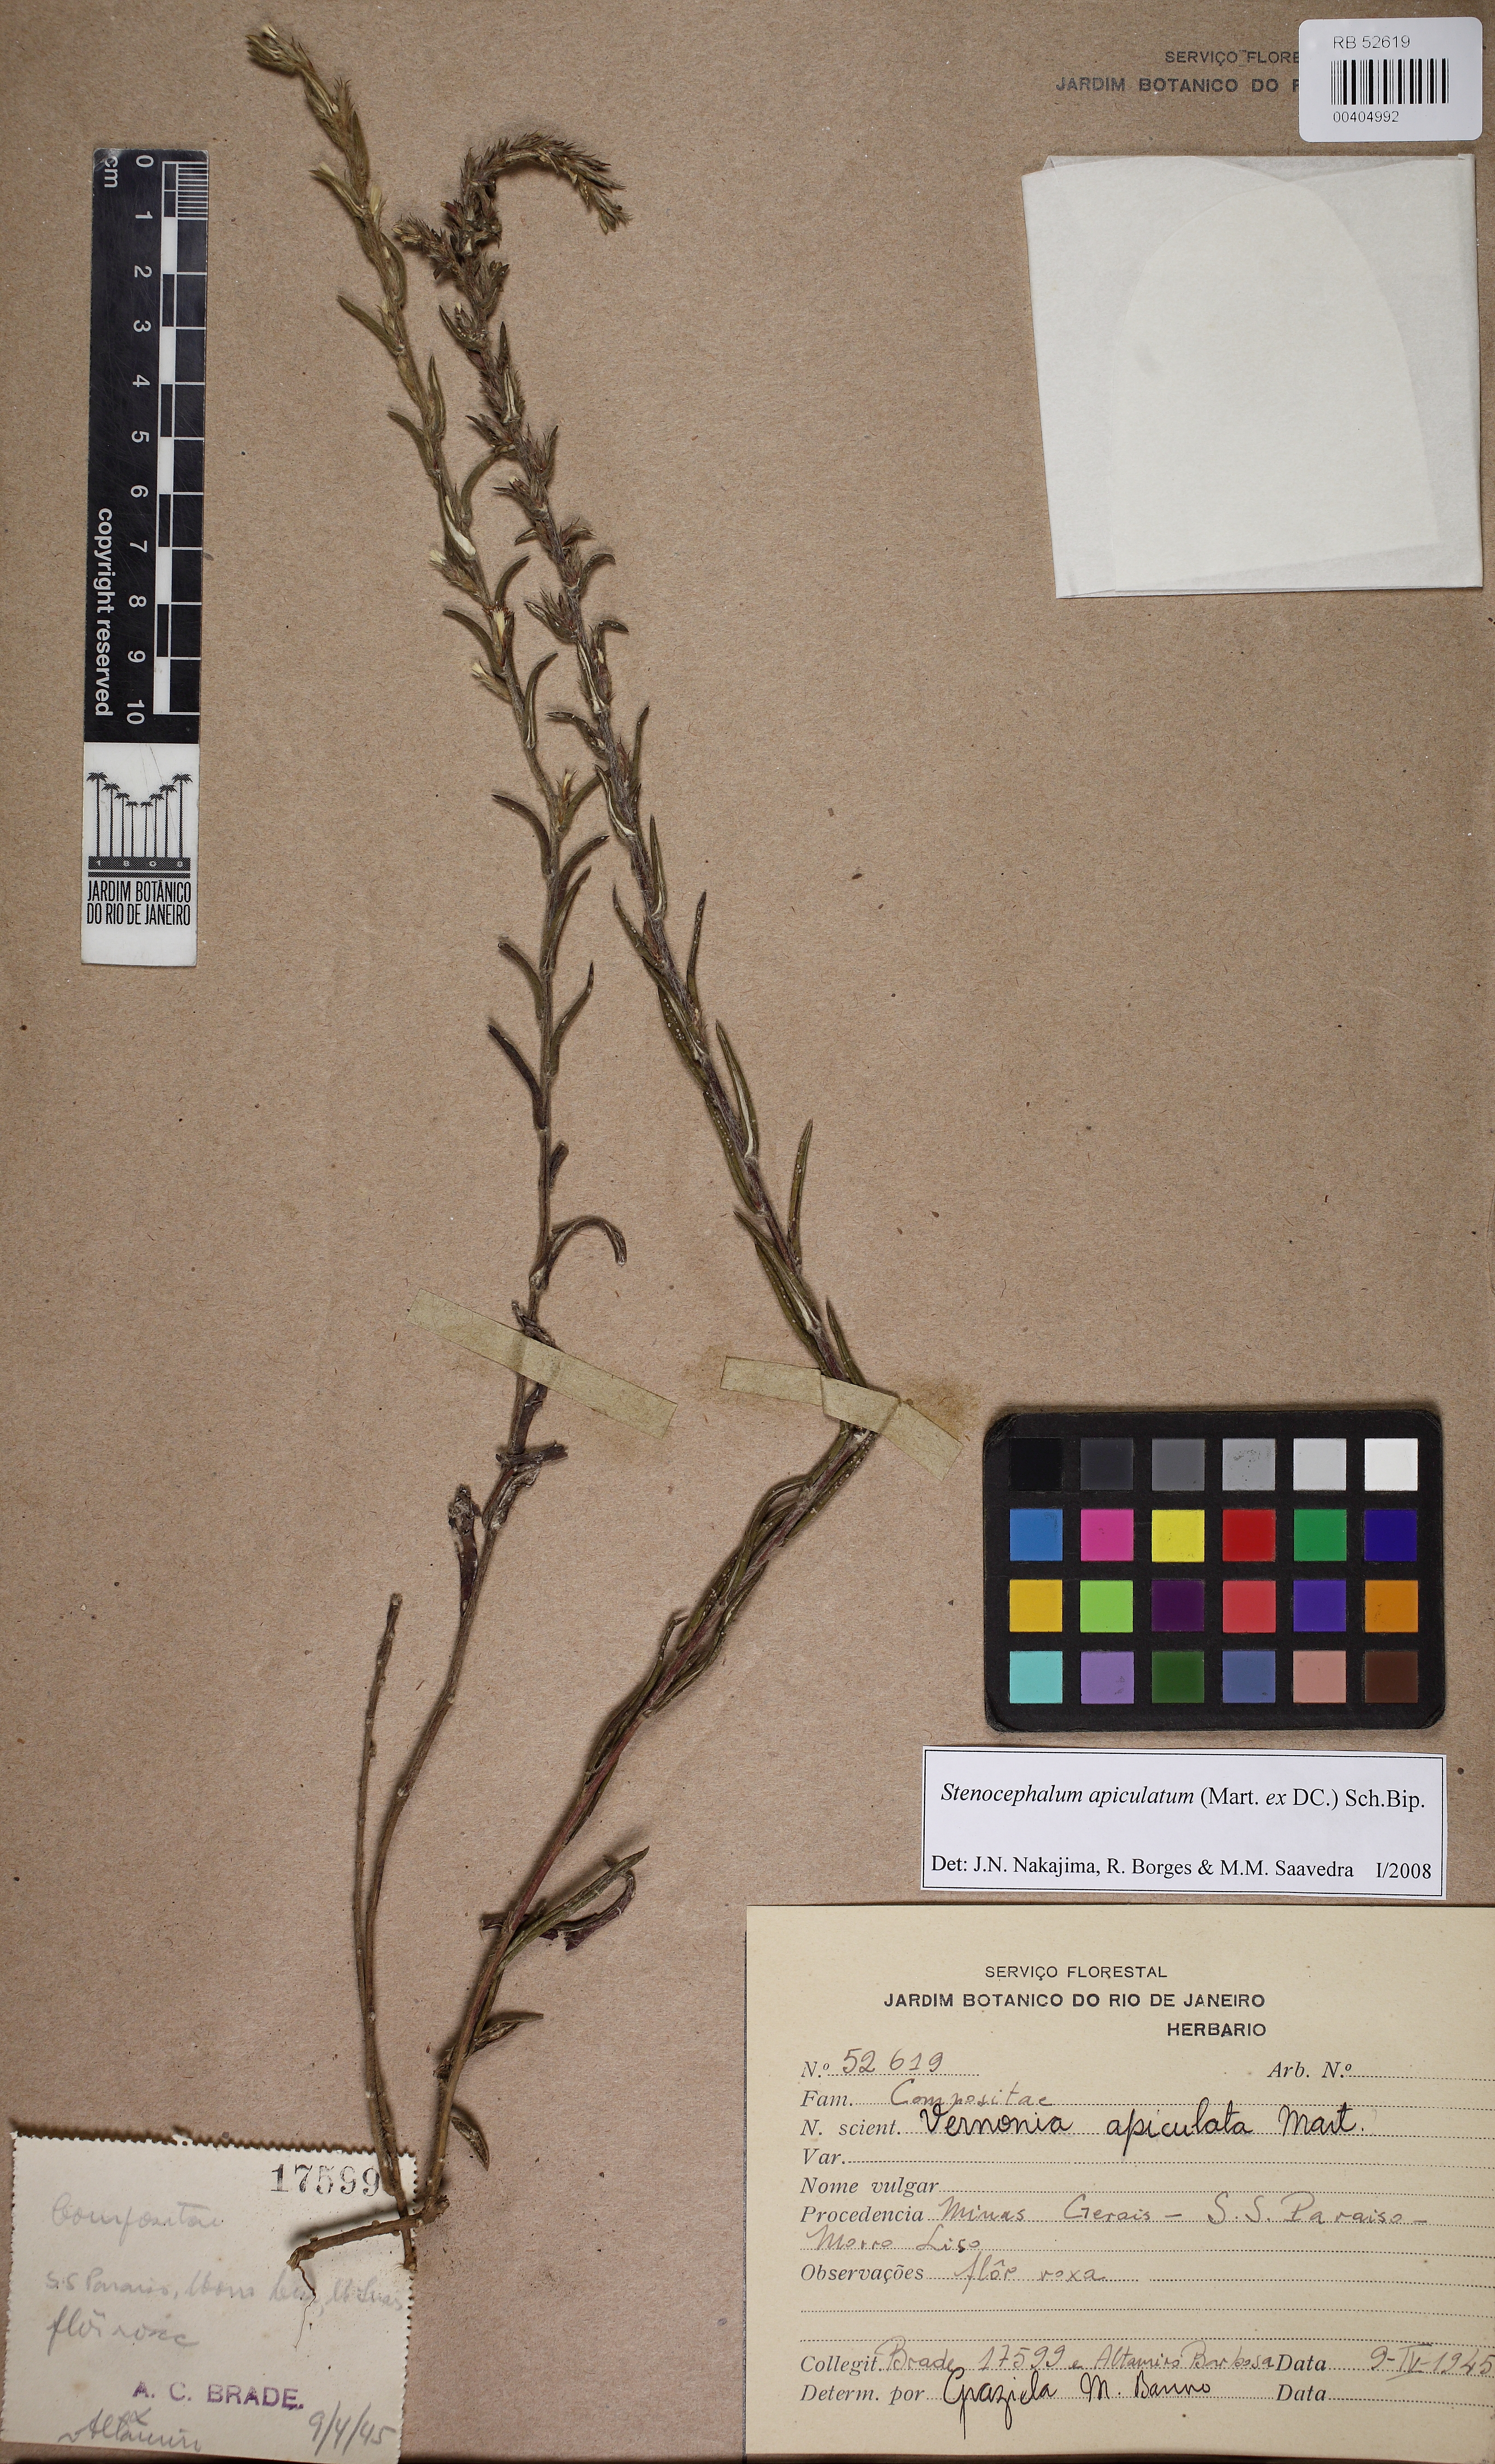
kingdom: Plantae
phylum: Tracheophyta
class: Magnoliopsida
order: Asterales
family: Asteraceae
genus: Stenocephalum
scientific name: Stenocephalum apiculatum
